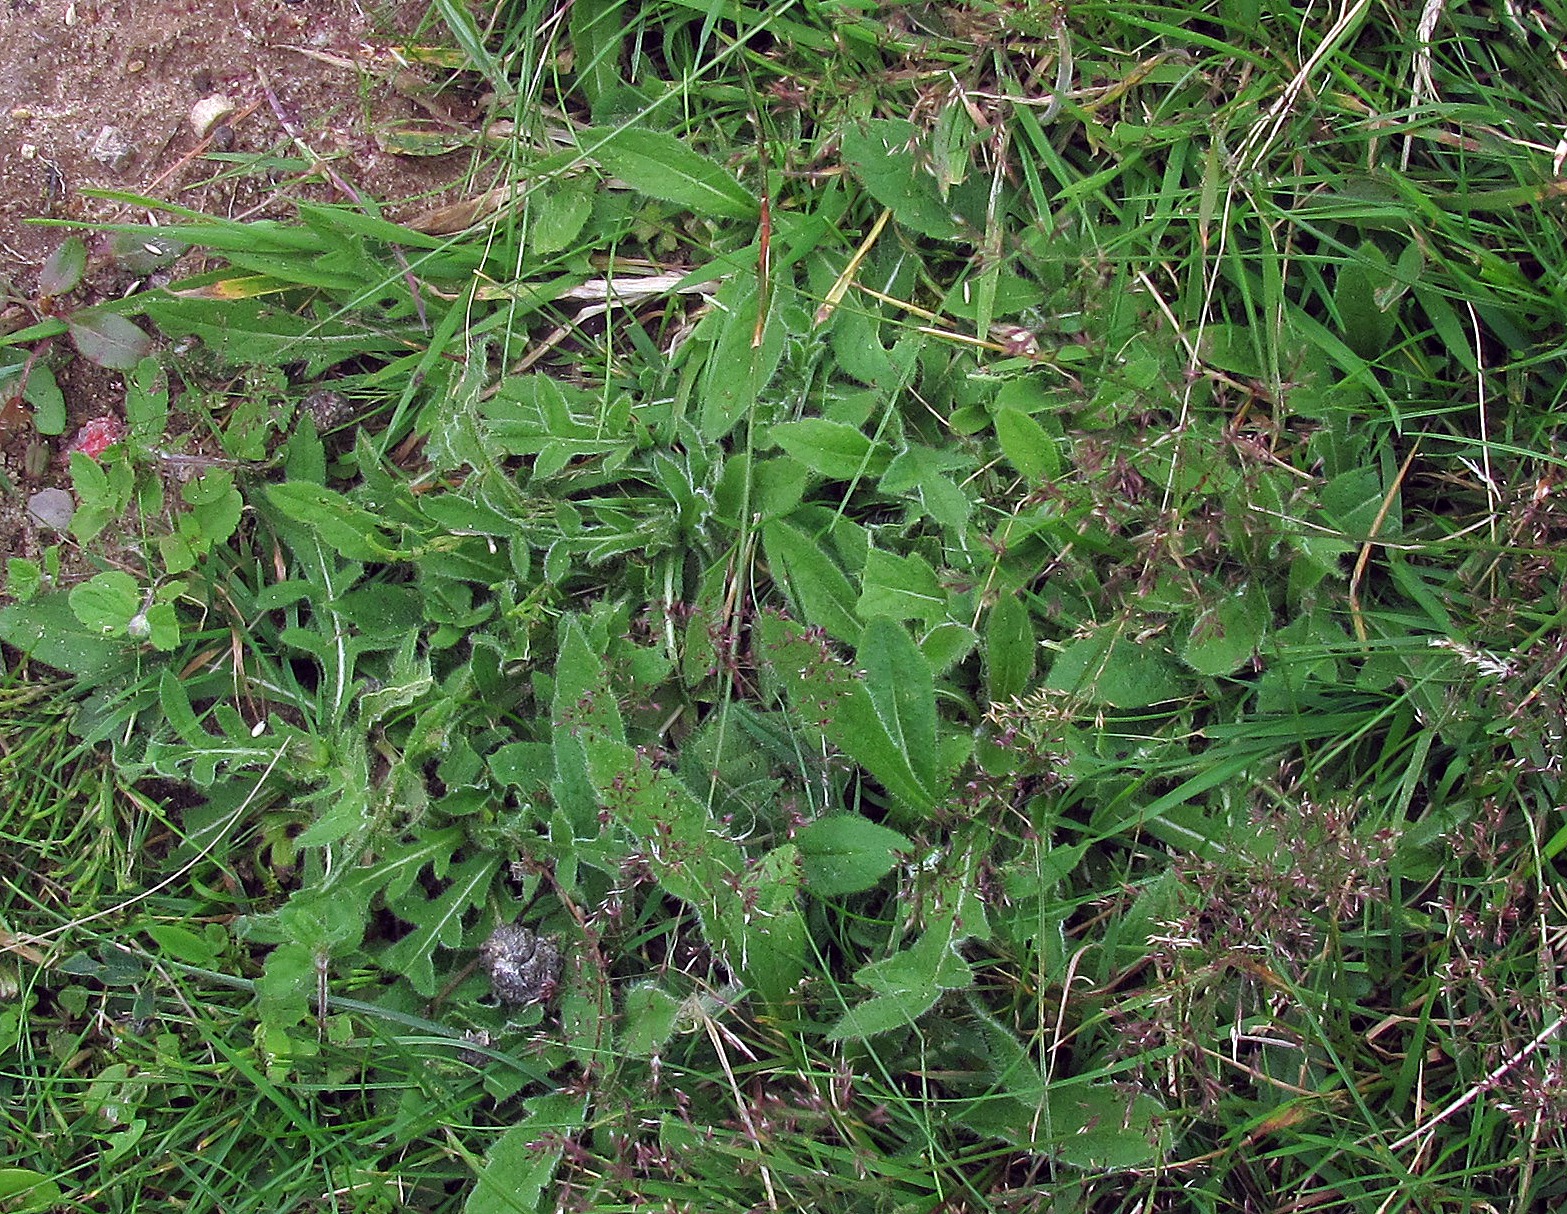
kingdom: Plantae
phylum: Tracheophyta
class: Magnoliopsida
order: Dipsacales
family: Caprifoliaceae
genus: Knautia
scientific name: Knautia arvensis
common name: Blåhat
